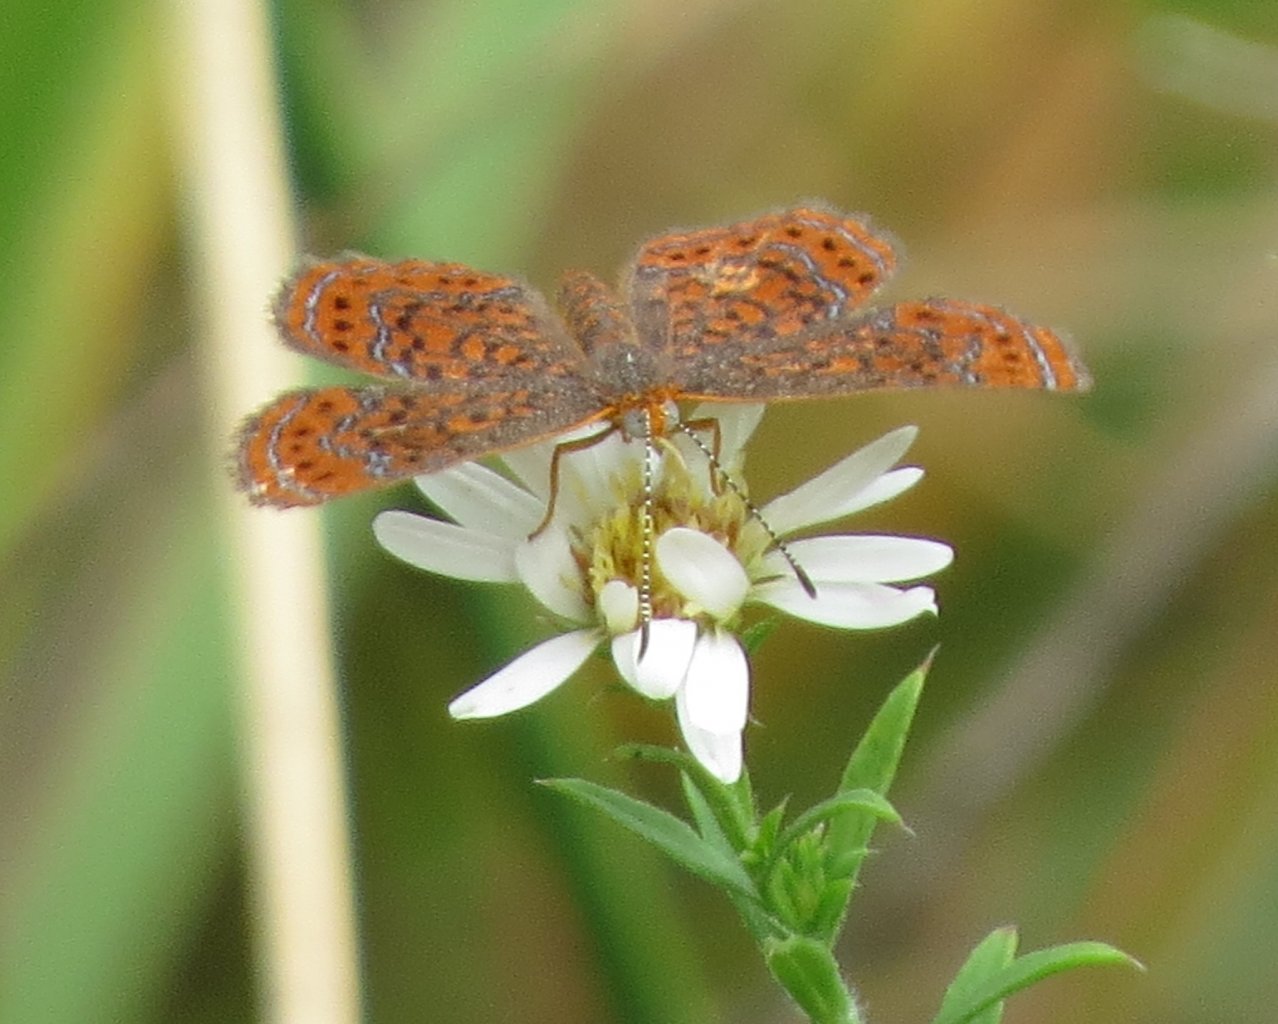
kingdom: Animalia
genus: Calephelis
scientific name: Calephelis virginiensis
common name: Little Metalmark
